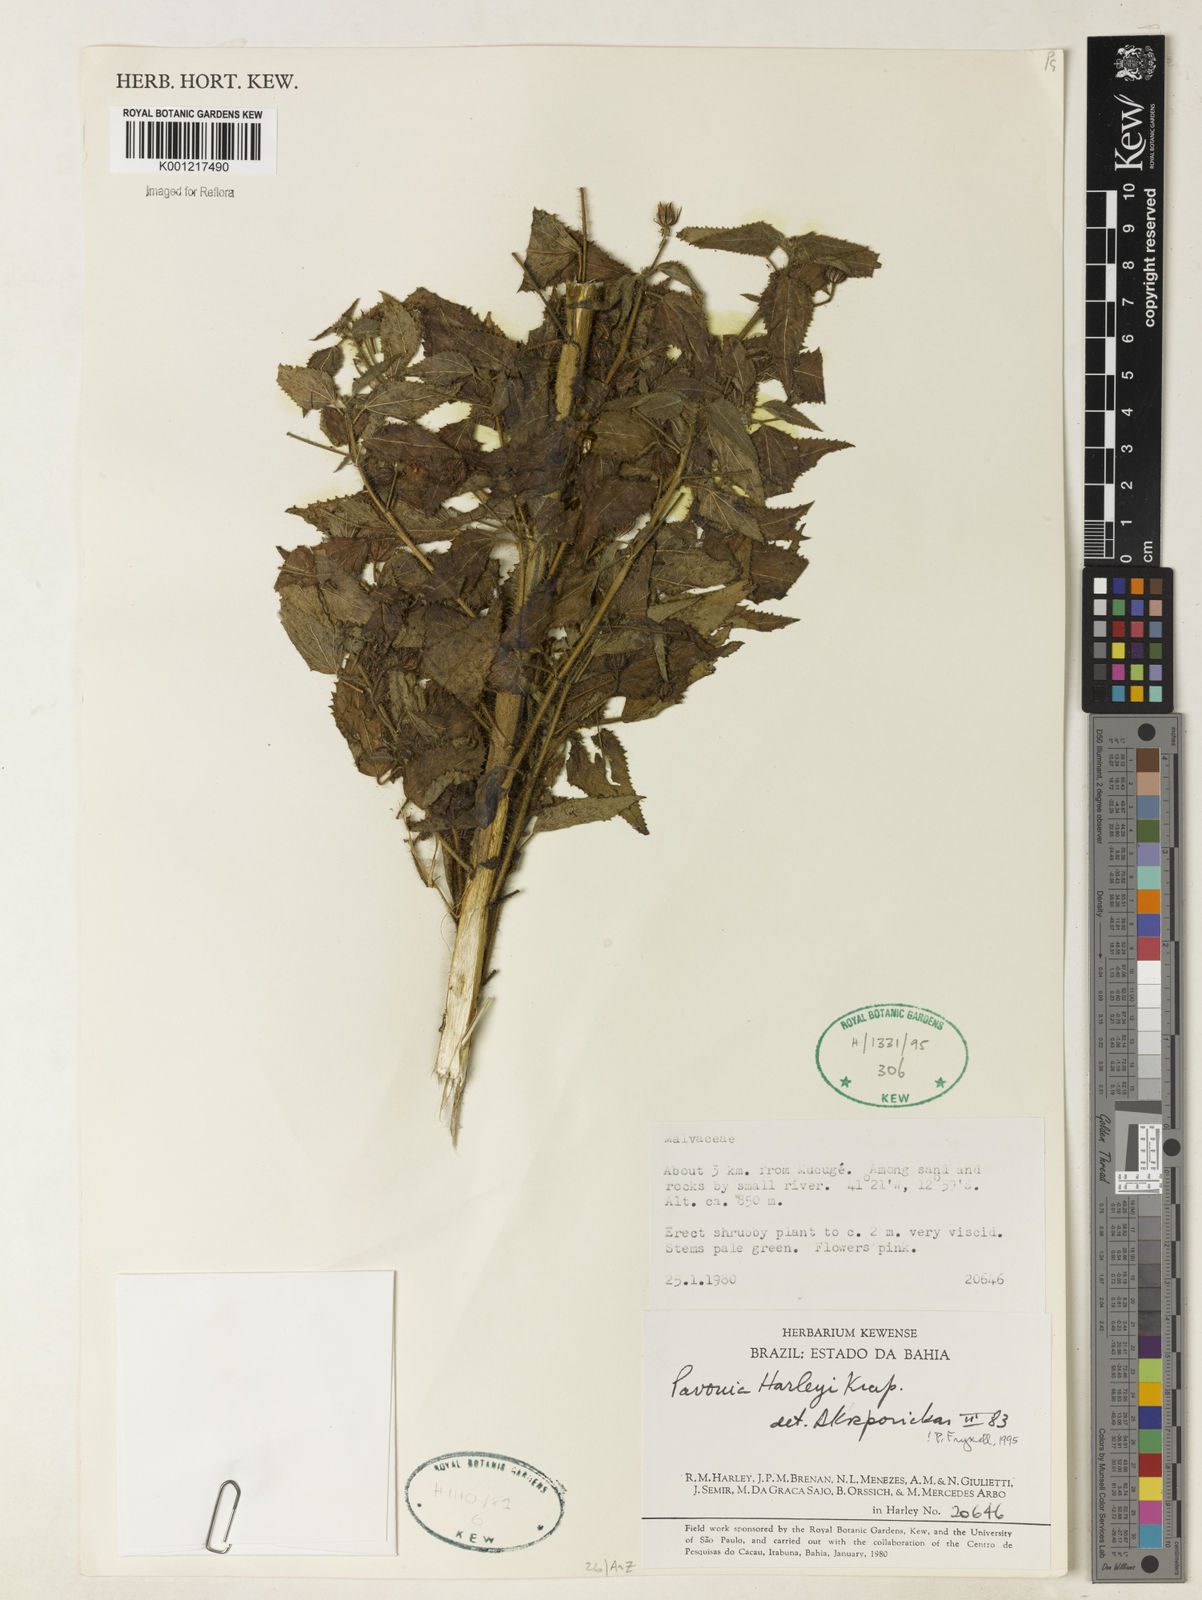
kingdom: Plantae
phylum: Tracheophyta
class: Magnoliopsida
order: Malvales
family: Malvaceae
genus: Pavonia
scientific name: Pavonia harleyi
